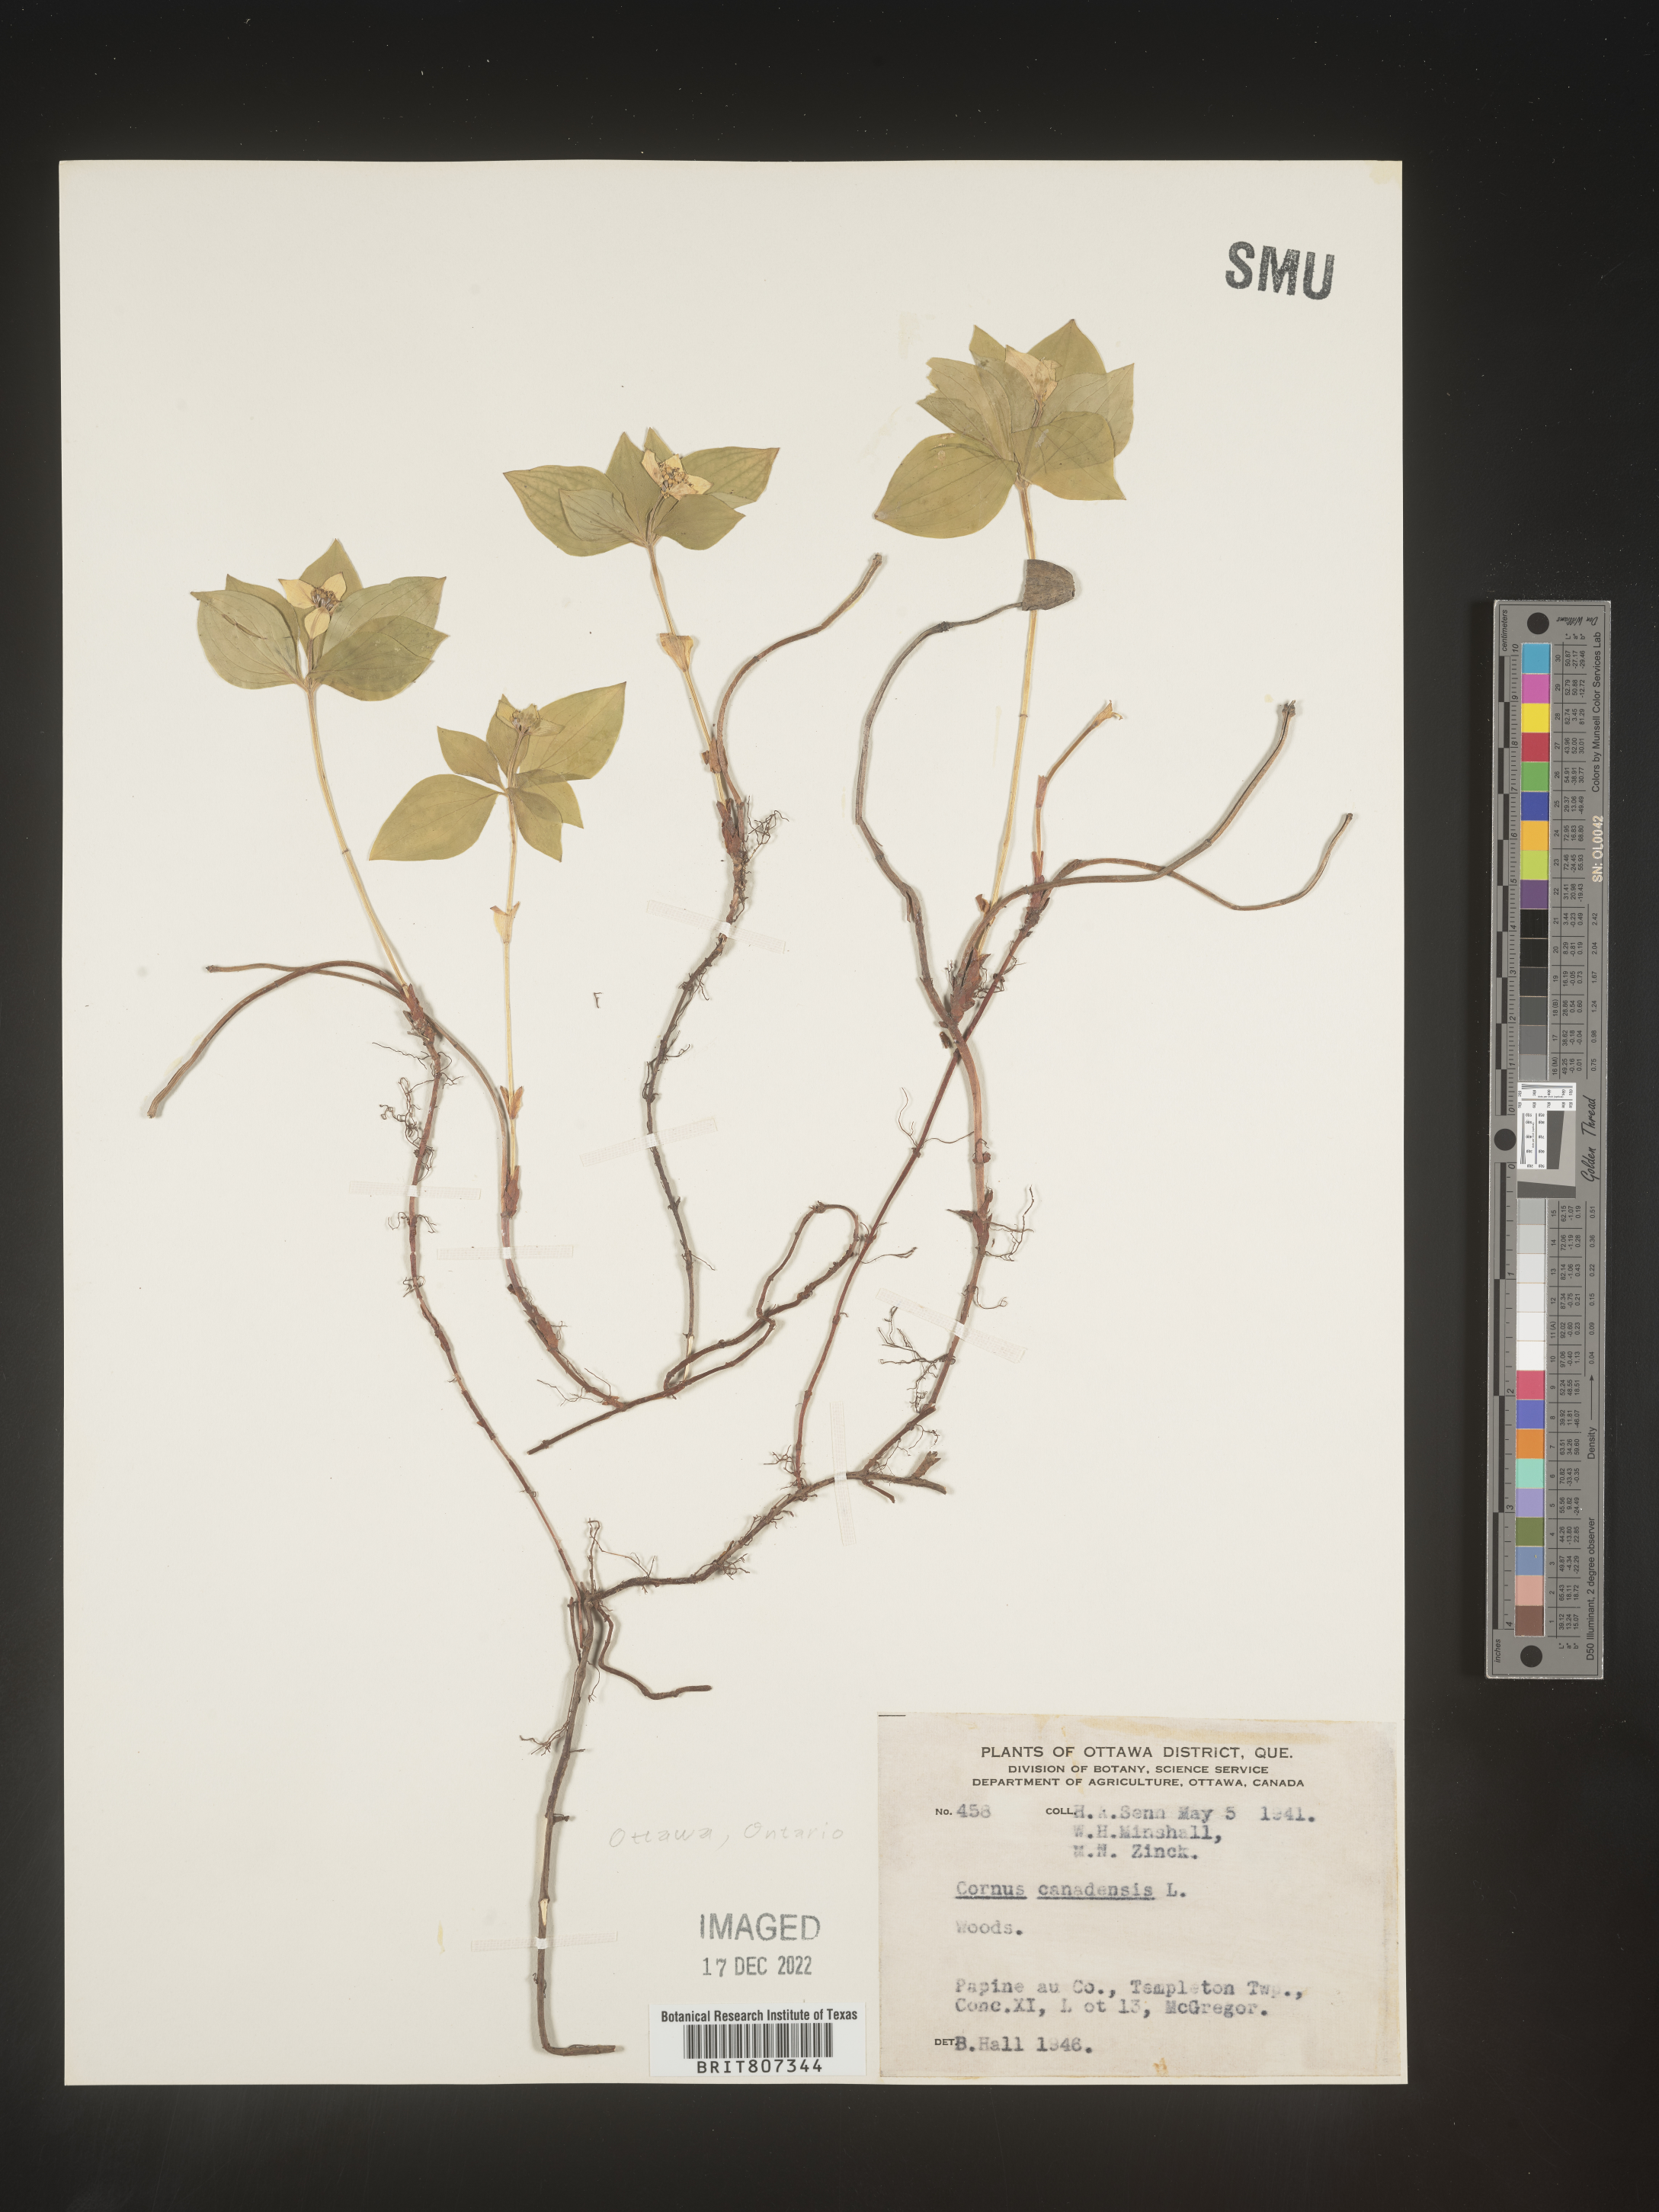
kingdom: Plantae
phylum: Tracheophyta
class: Magnoliopsida
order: Cornales
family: Cornaceae
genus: Cornus
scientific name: Cornus canadensis
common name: Creeping dogwood
